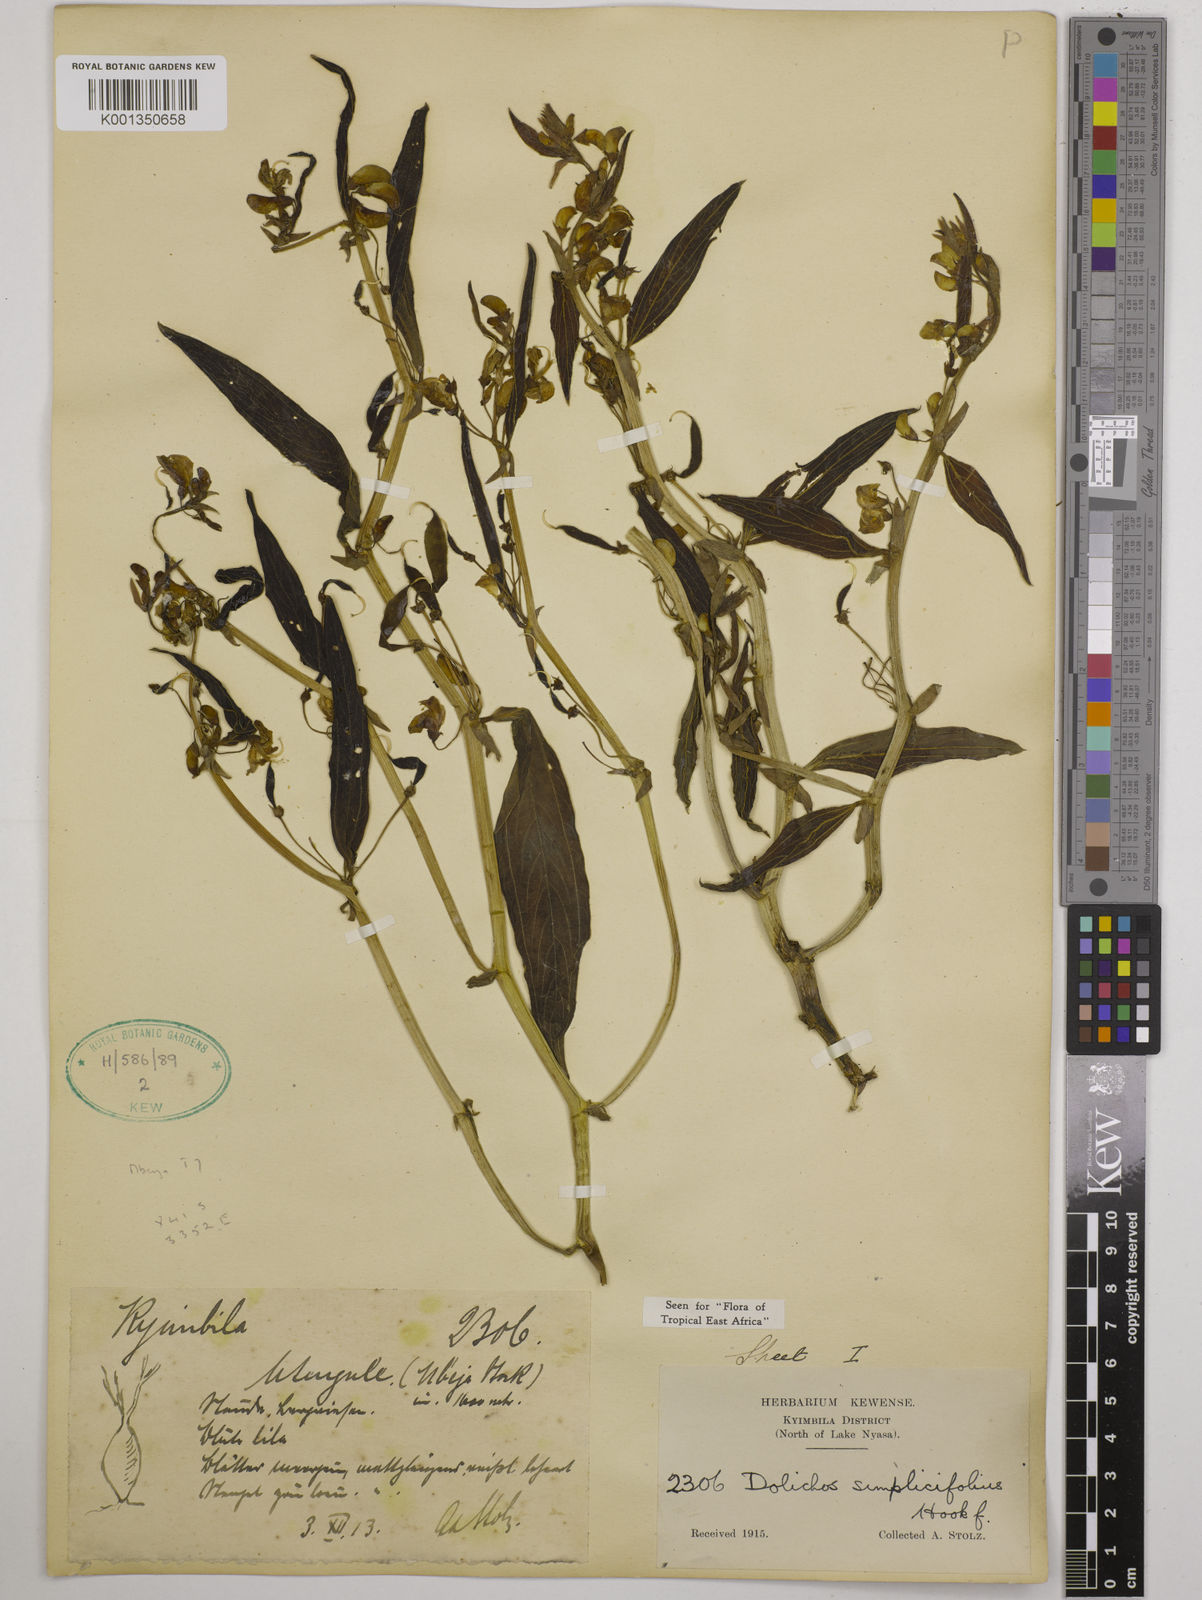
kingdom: Plantae
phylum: Tracheophyta
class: Magnoliopsida
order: Fabales
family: Fabaceae
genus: Dolichos
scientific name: Dolichos simplicifolius
